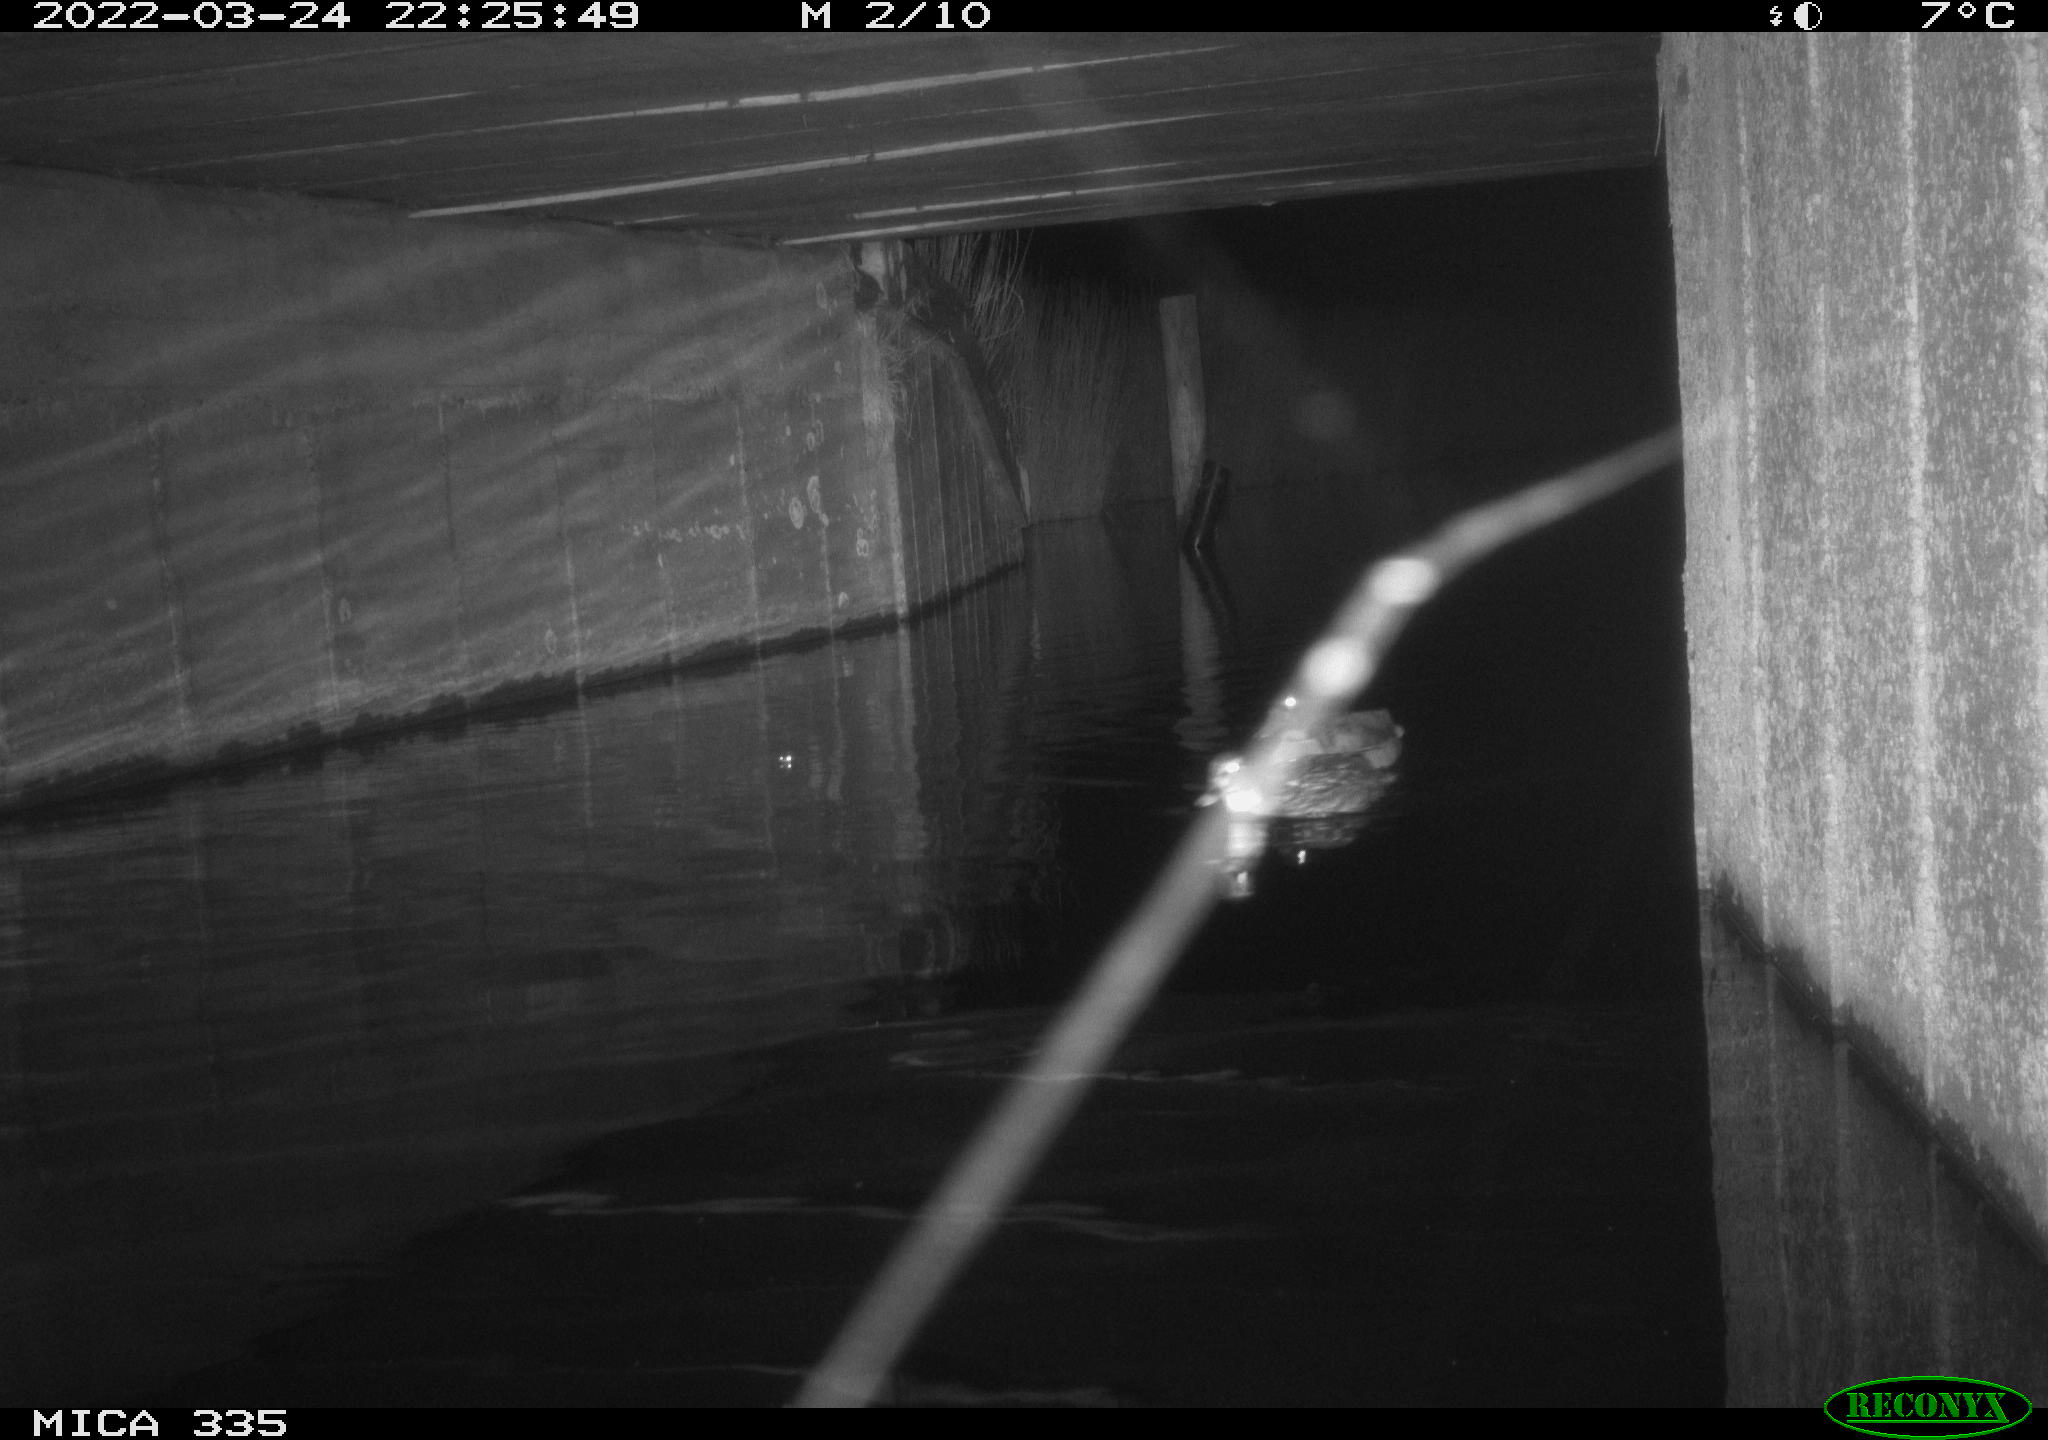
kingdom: Animalia
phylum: Chordata
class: Aves
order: Anseriformes
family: Anatidae
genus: Anas
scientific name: Anas platyrhynchos
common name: Mallard
